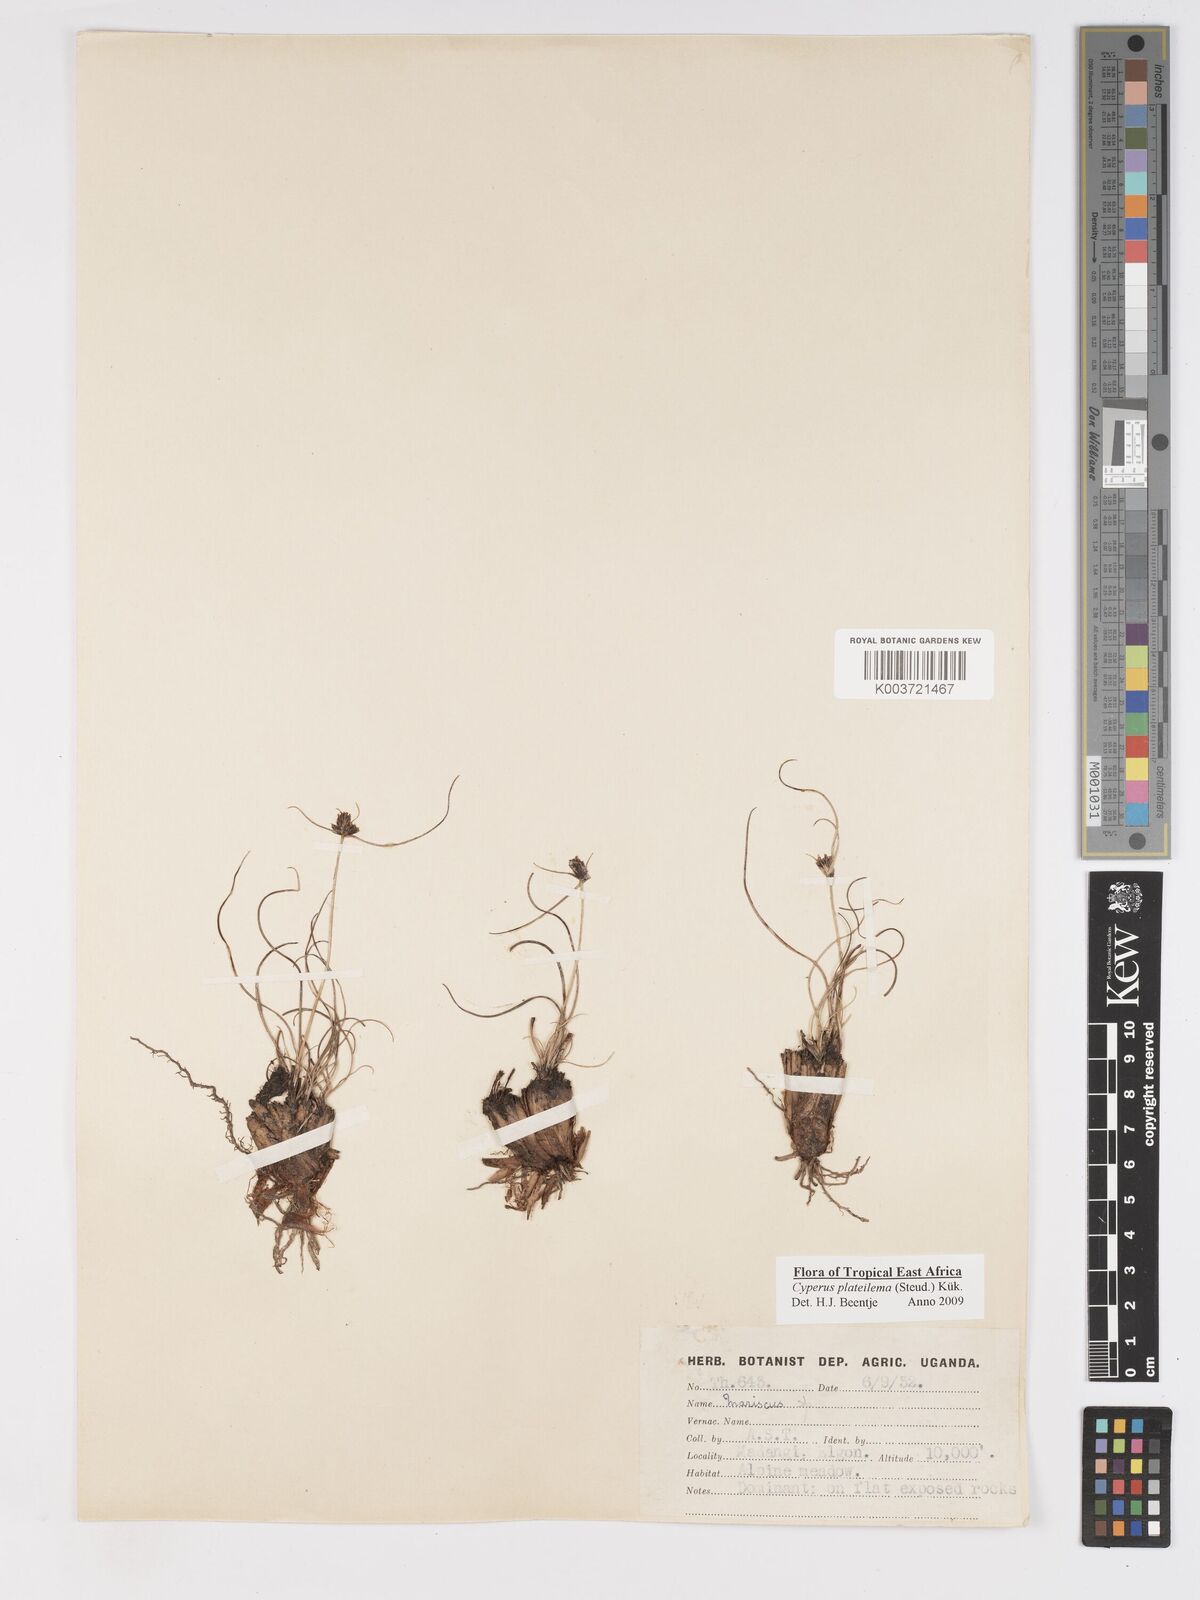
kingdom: Plantae
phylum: Tracheophyta
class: Liliopsida
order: Poales
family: Cyperaceae
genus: Cyperus
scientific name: Cyperus plateilema
